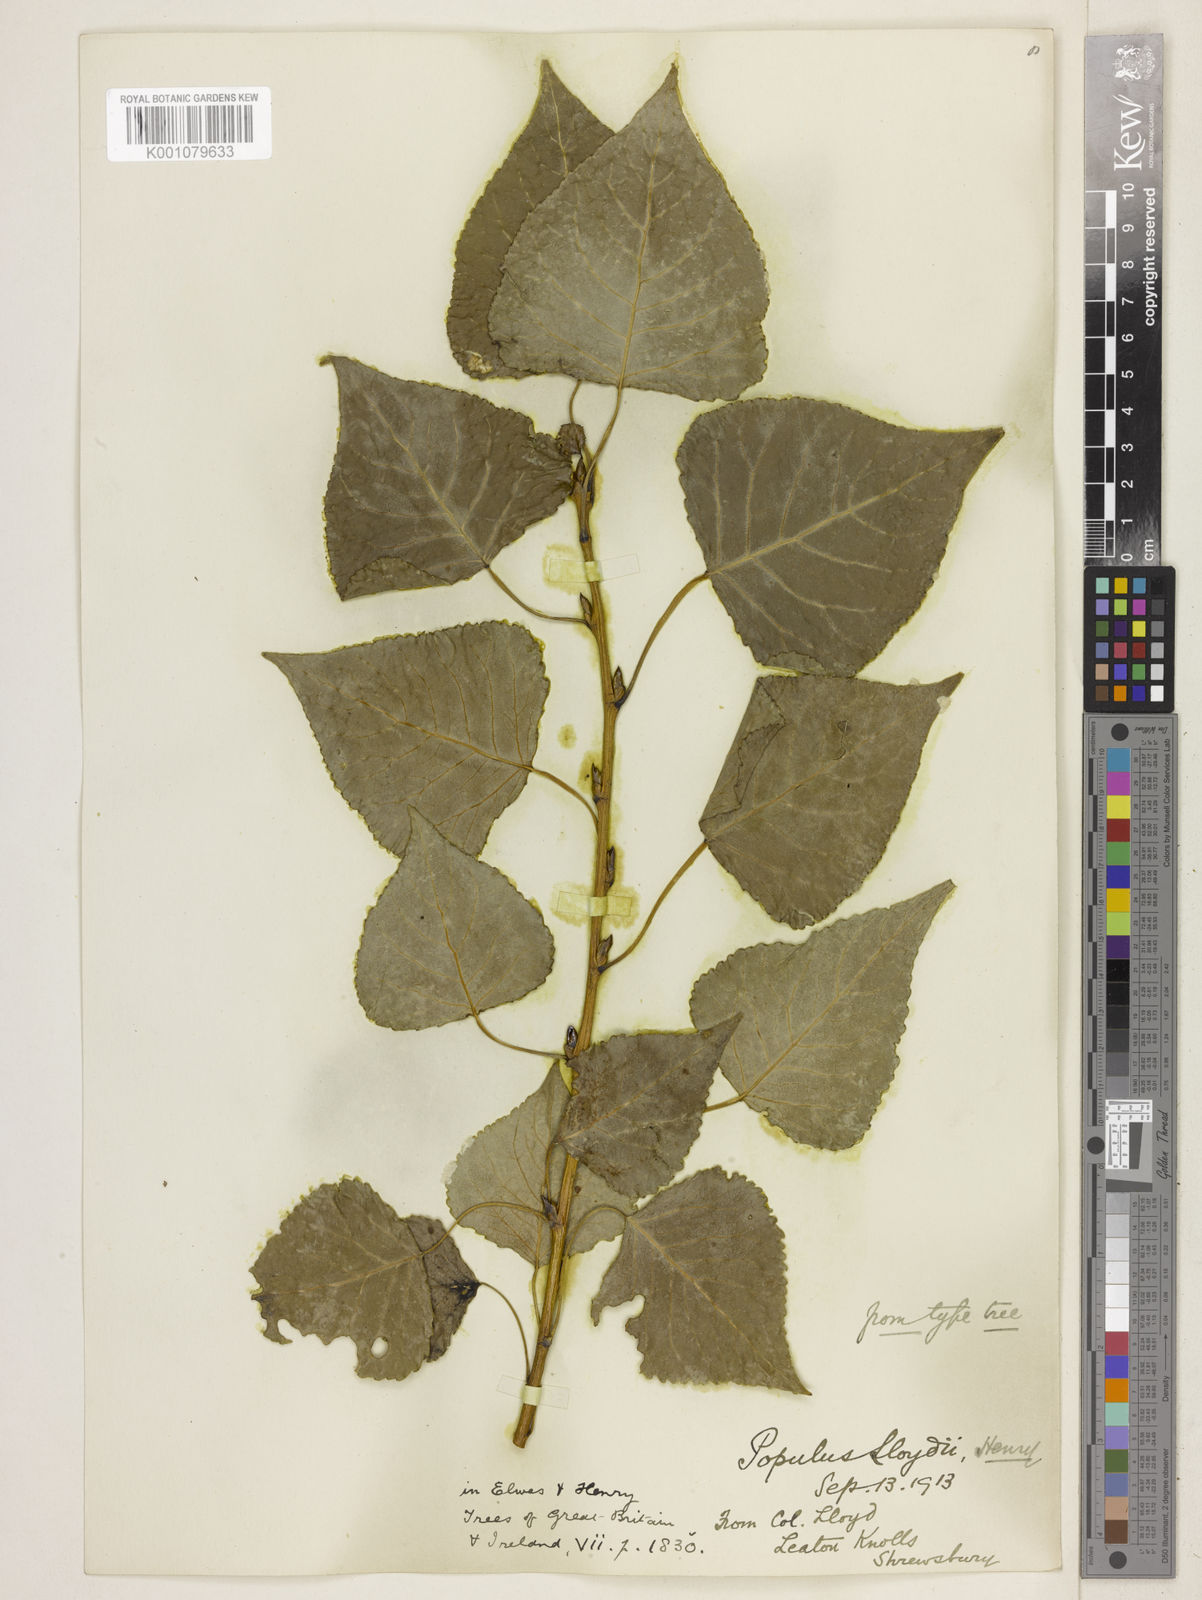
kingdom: Plantae
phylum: Tracheophyta
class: Magnoliopsida
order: Malpighiales
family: Salicaceae
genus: Populus
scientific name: Populus
